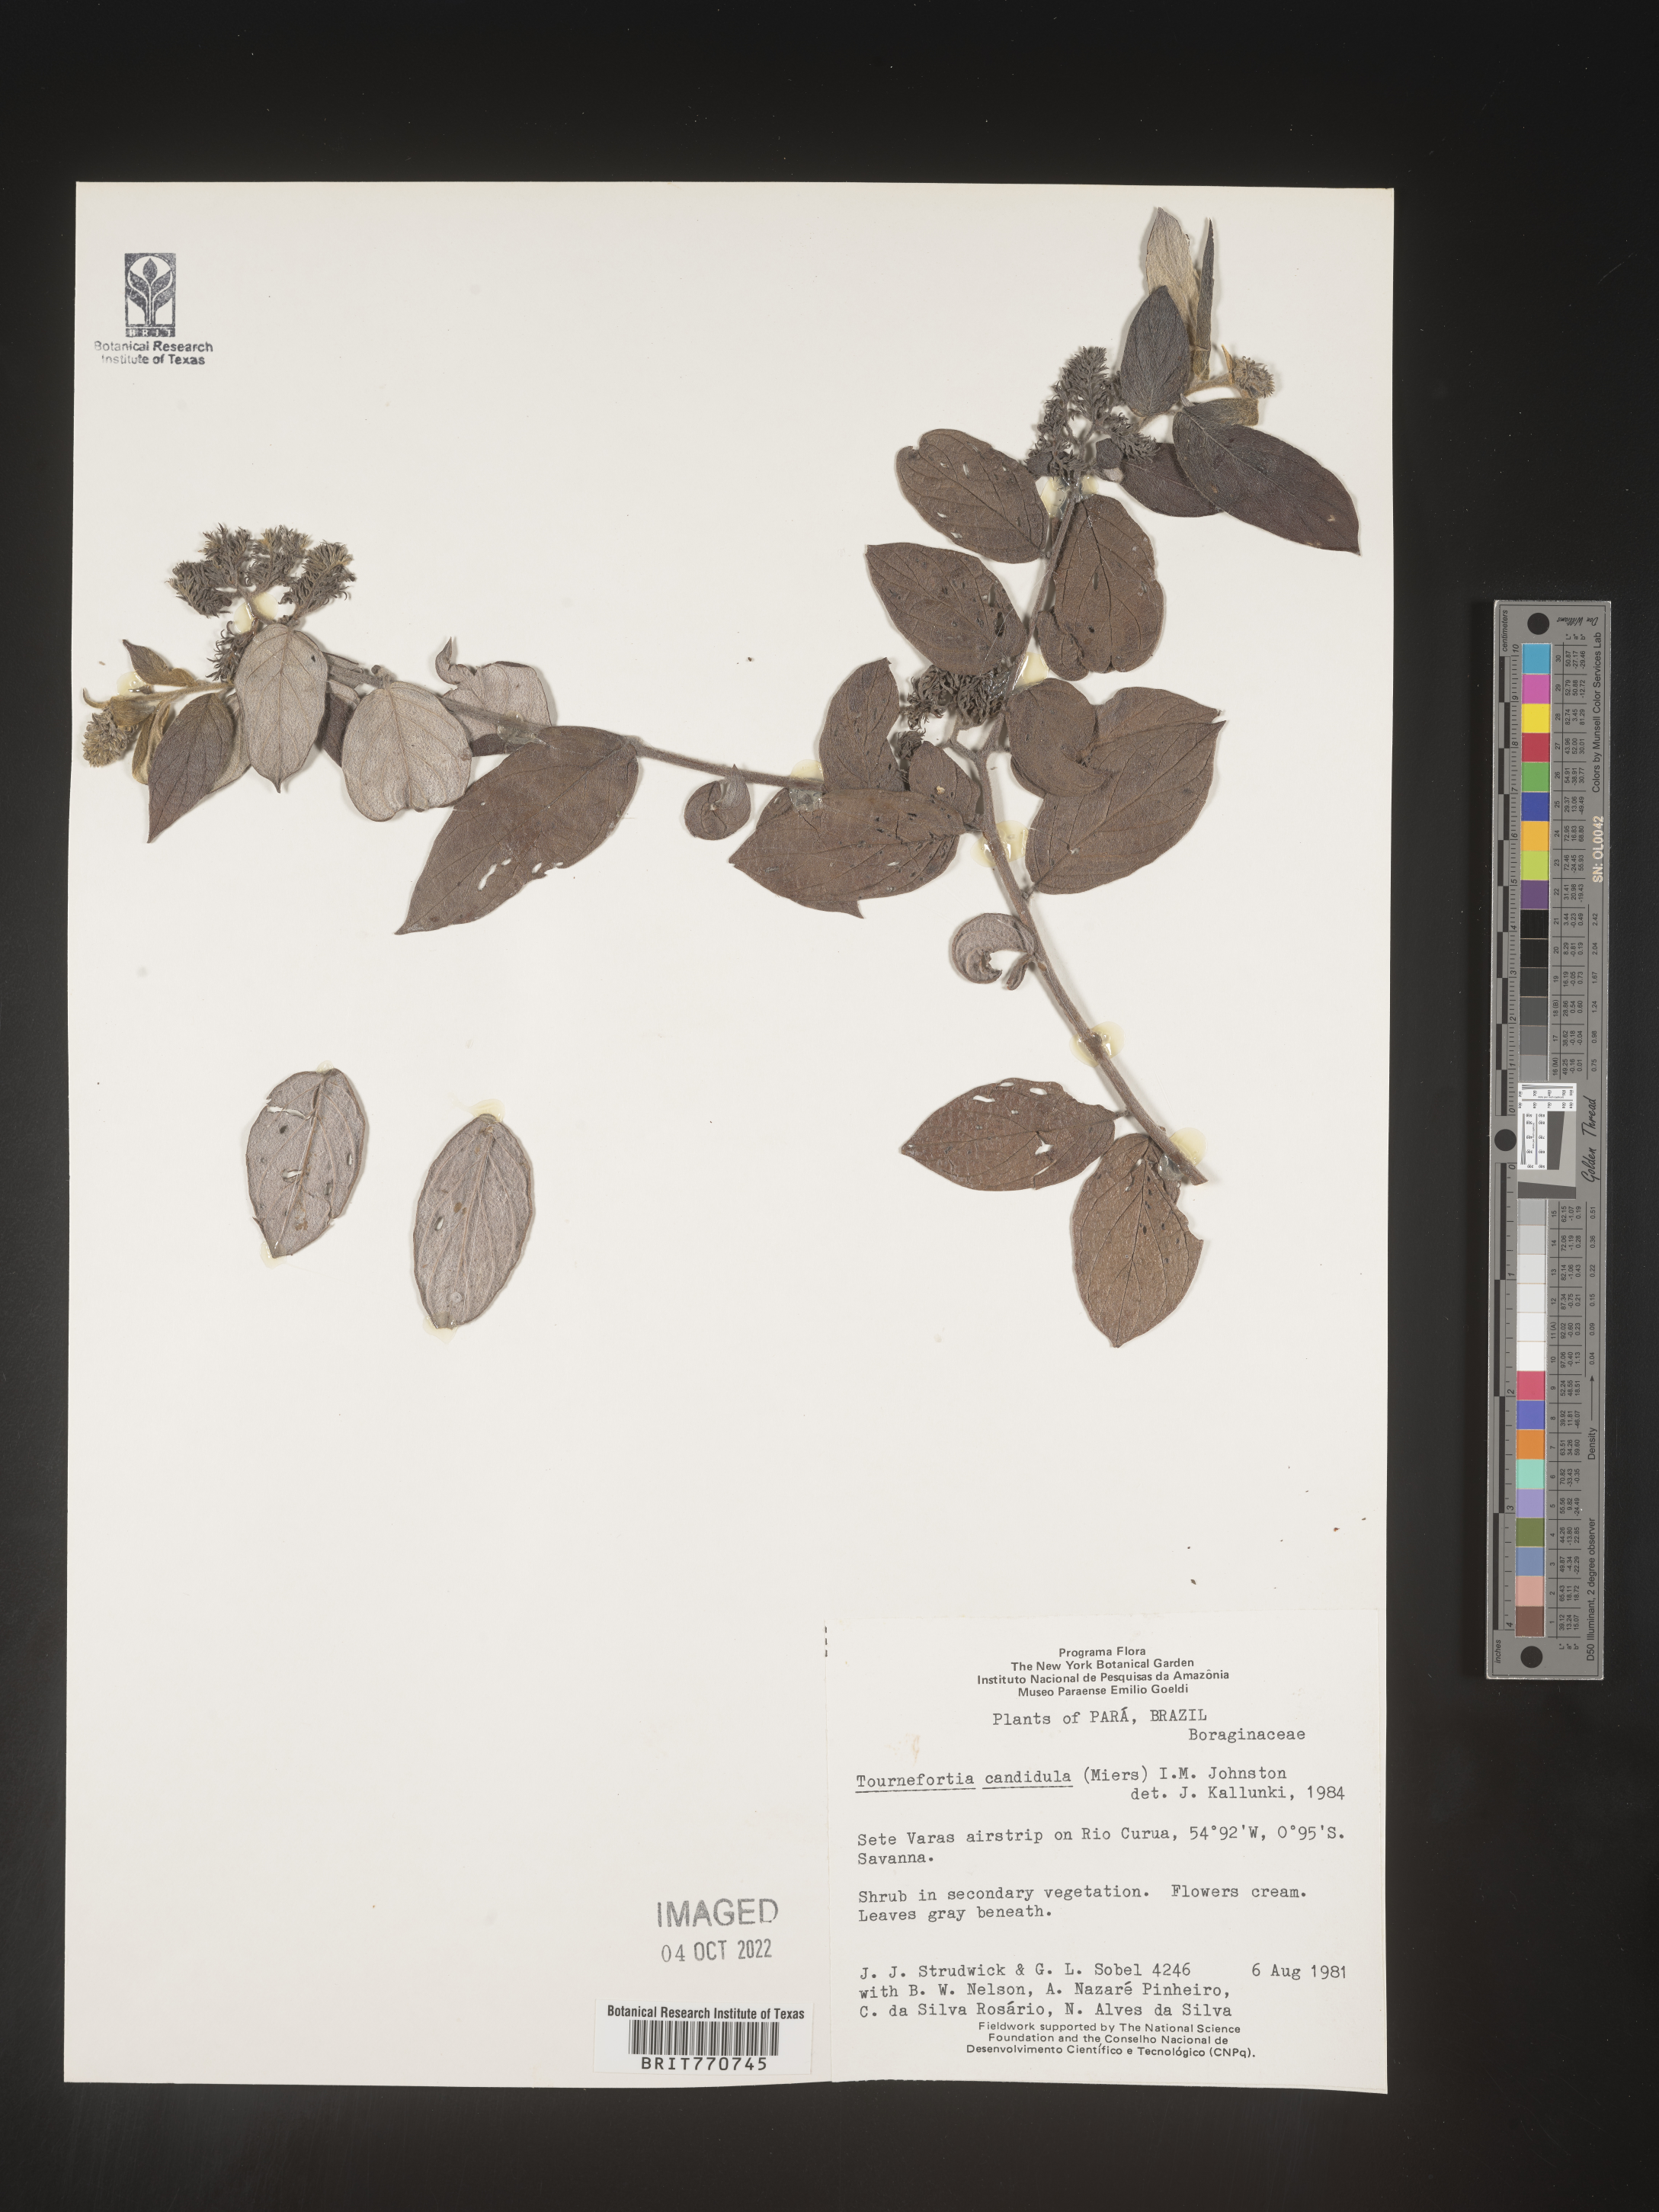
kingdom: Plantae
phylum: Tracheophyta
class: Magnoliopsida
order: Boraginales
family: Heliotropiaceae
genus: Tournefortia
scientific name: Tournefortia
